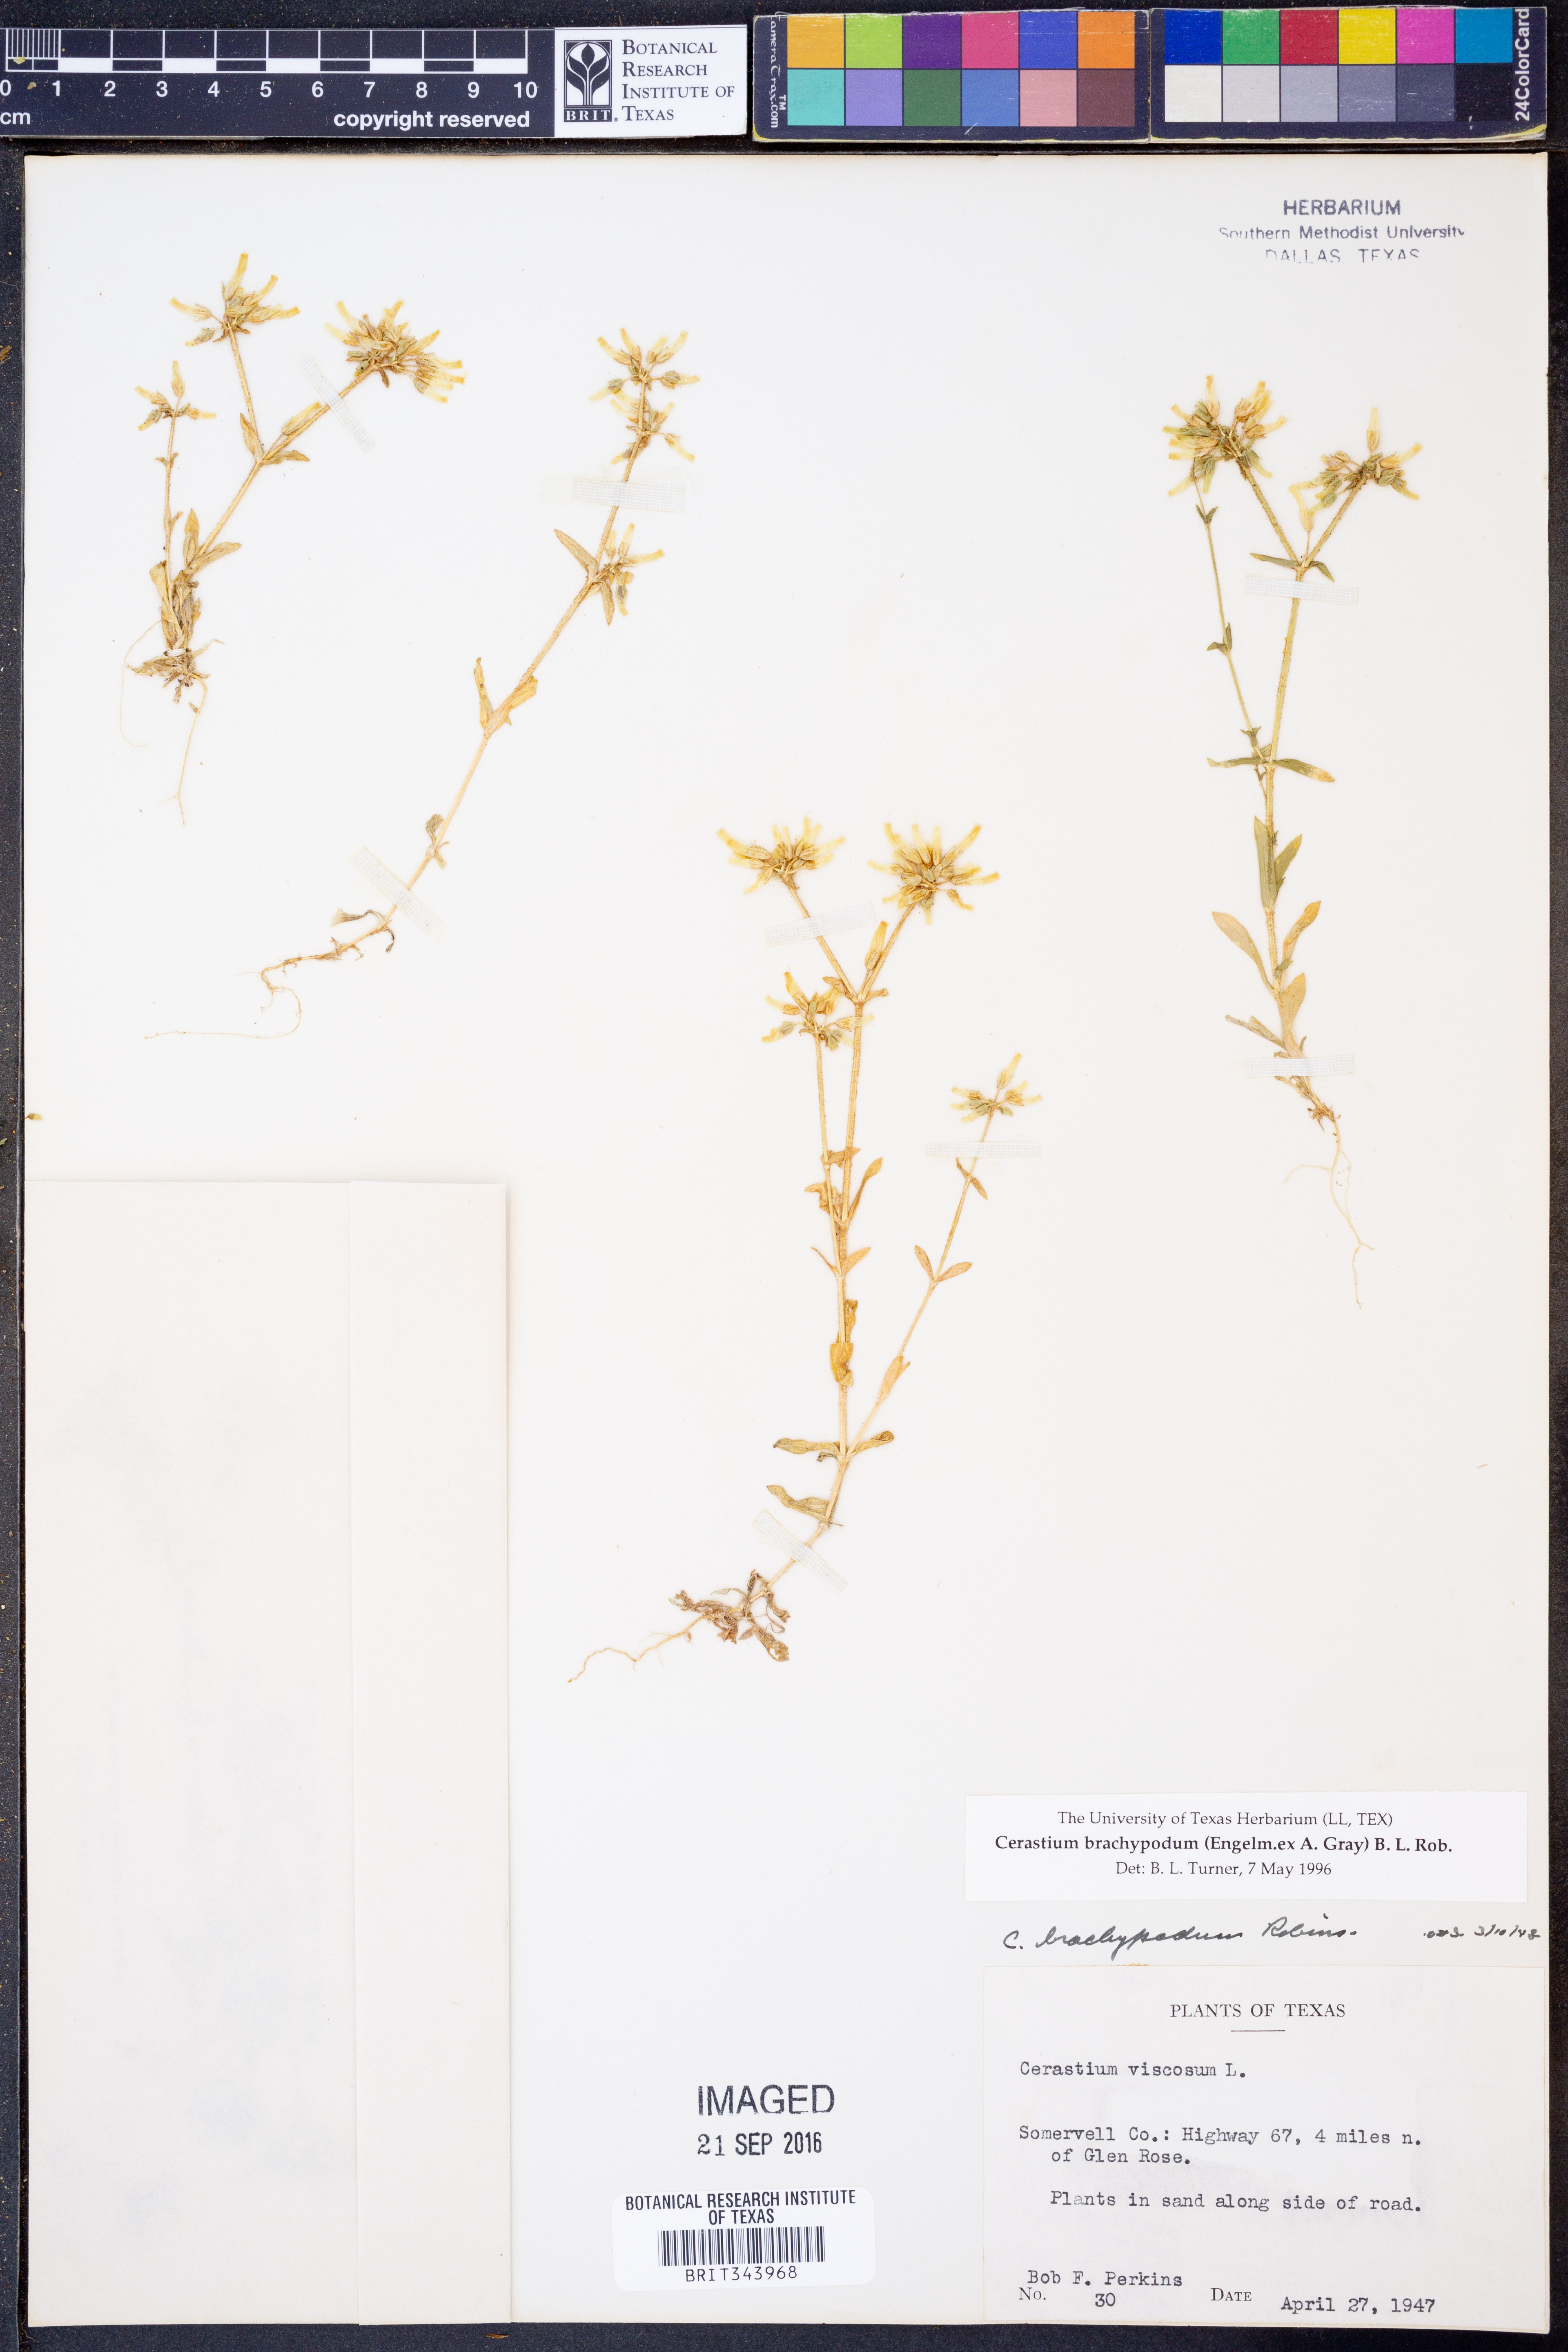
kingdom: Plantae
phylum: Tracheophyta
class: Magnoliopsida
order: Caryophyllales
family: Caryophyllaceae
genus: Cerastium
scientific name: Cerastium brachypodum
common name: Short-pedicelled nodding chickweed
